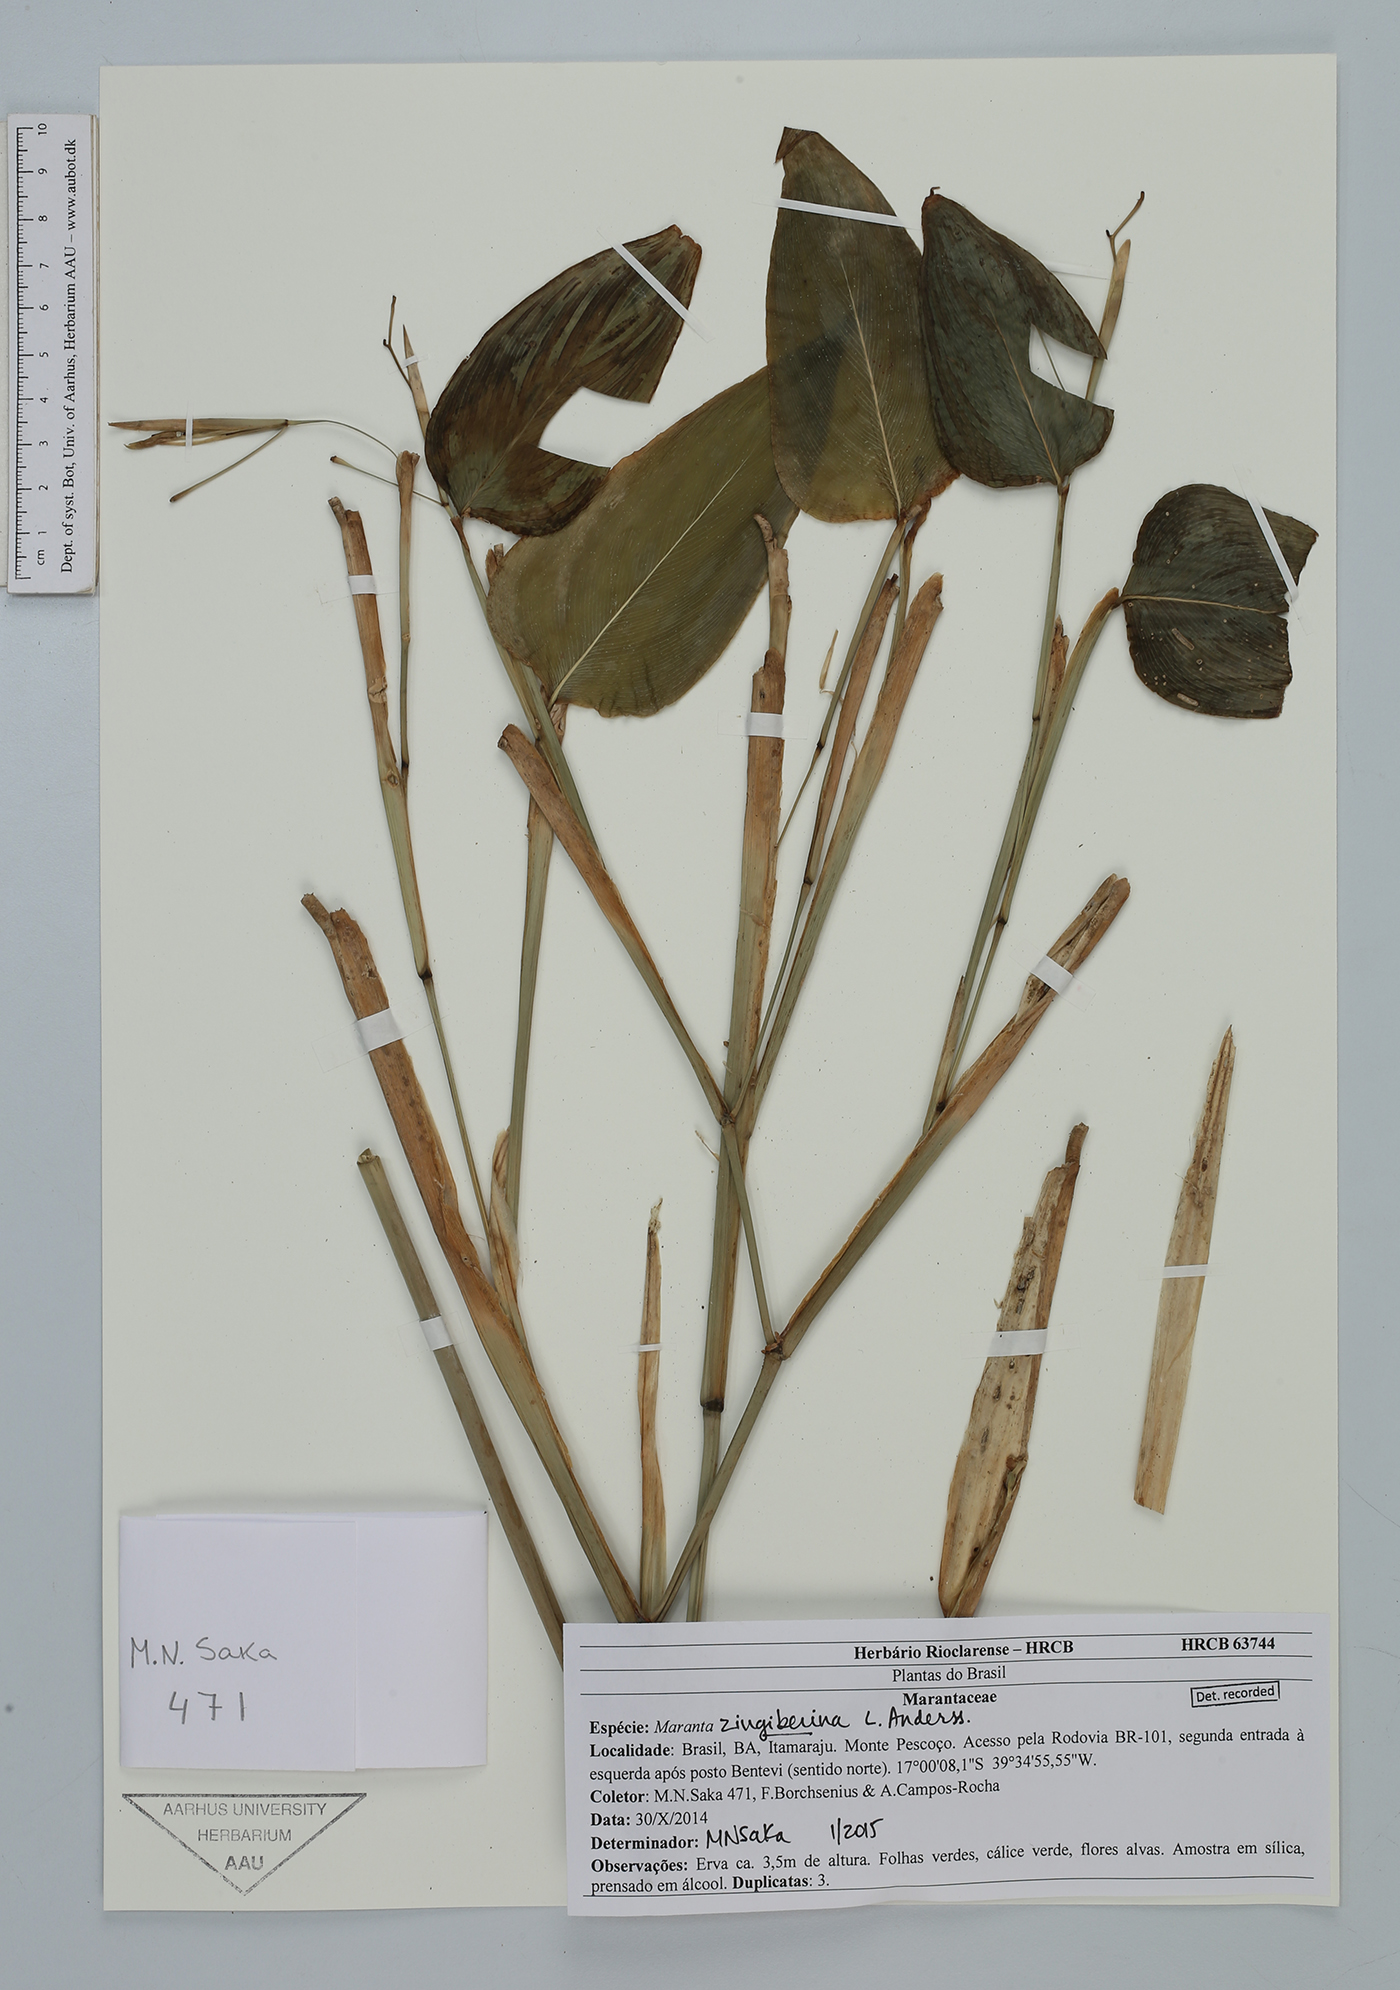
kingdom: Plantae
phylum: Tracheophyta
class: Liliopsida
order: Zingiberales
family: Marantaceae
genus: Maranta
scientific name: Maranta zingiberina
